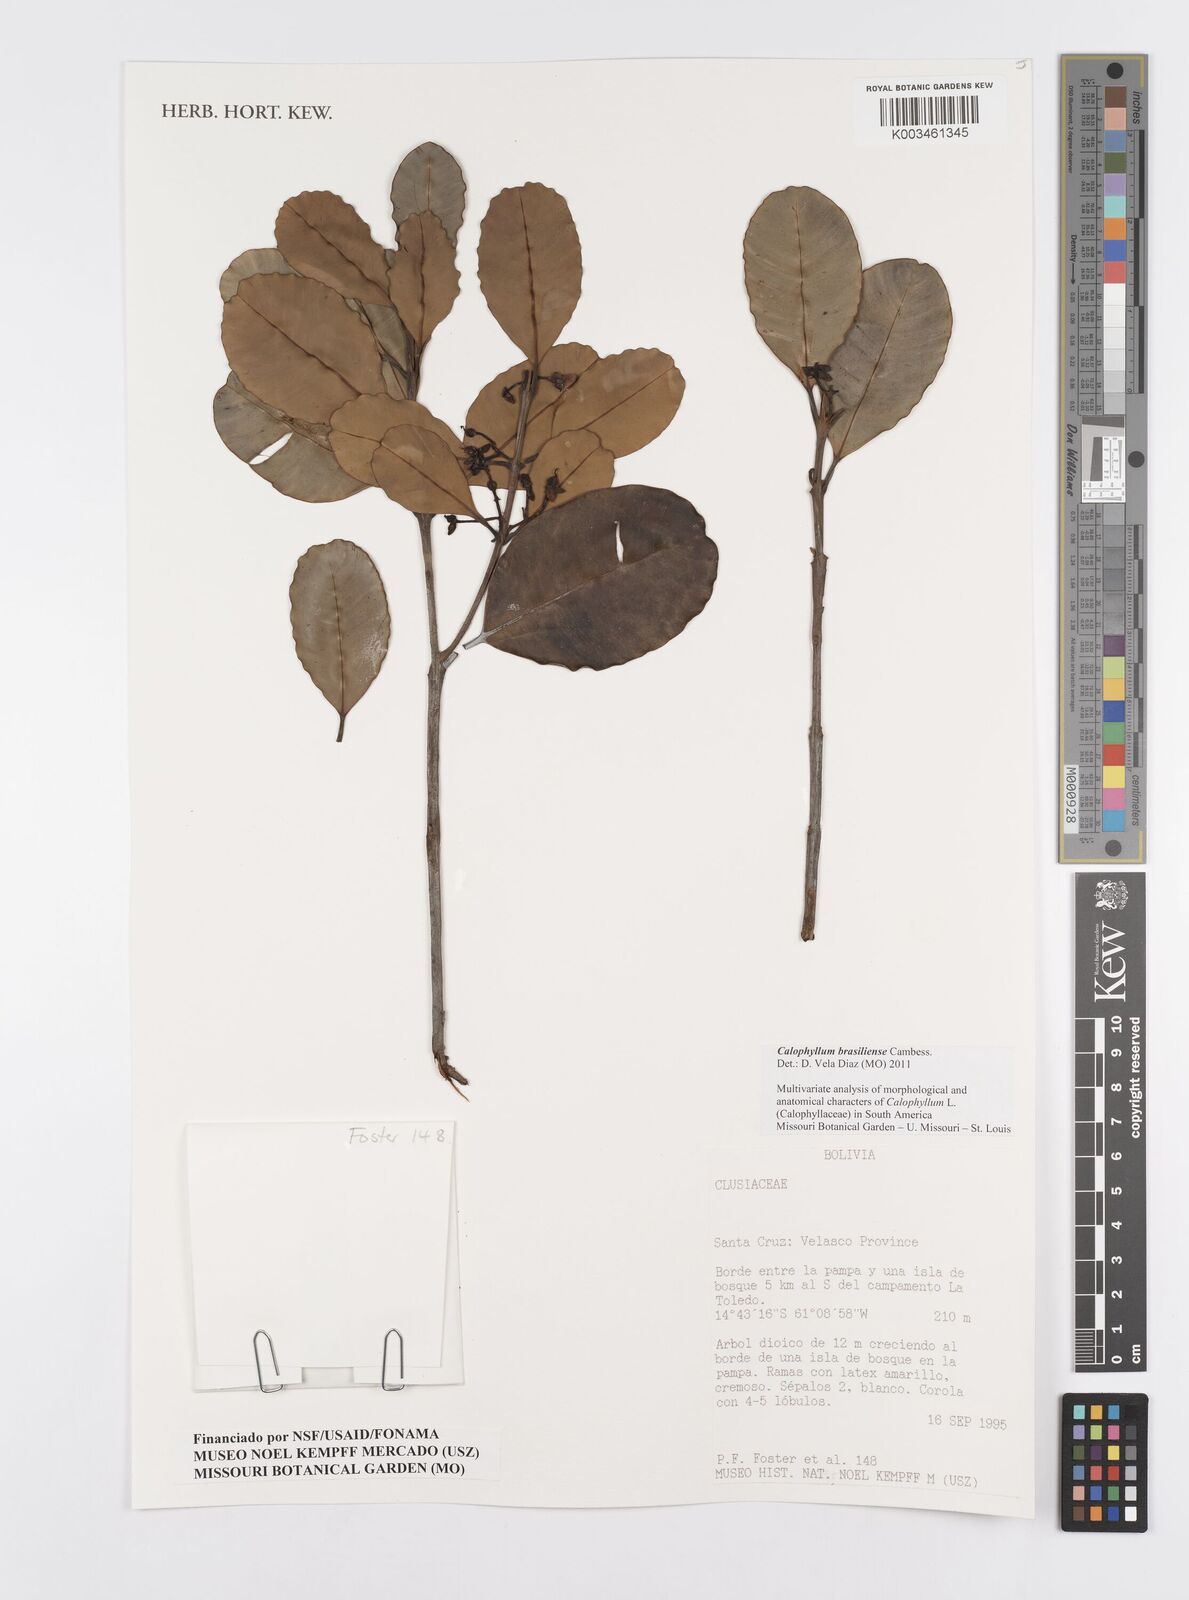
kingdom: Plantae
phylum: Tracheophyta
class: Magnoliopsida
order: Malpighiales
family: Calophyllaceae
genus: Calophyllum
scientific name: Calophyllum brasiliense
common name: Santa maria
